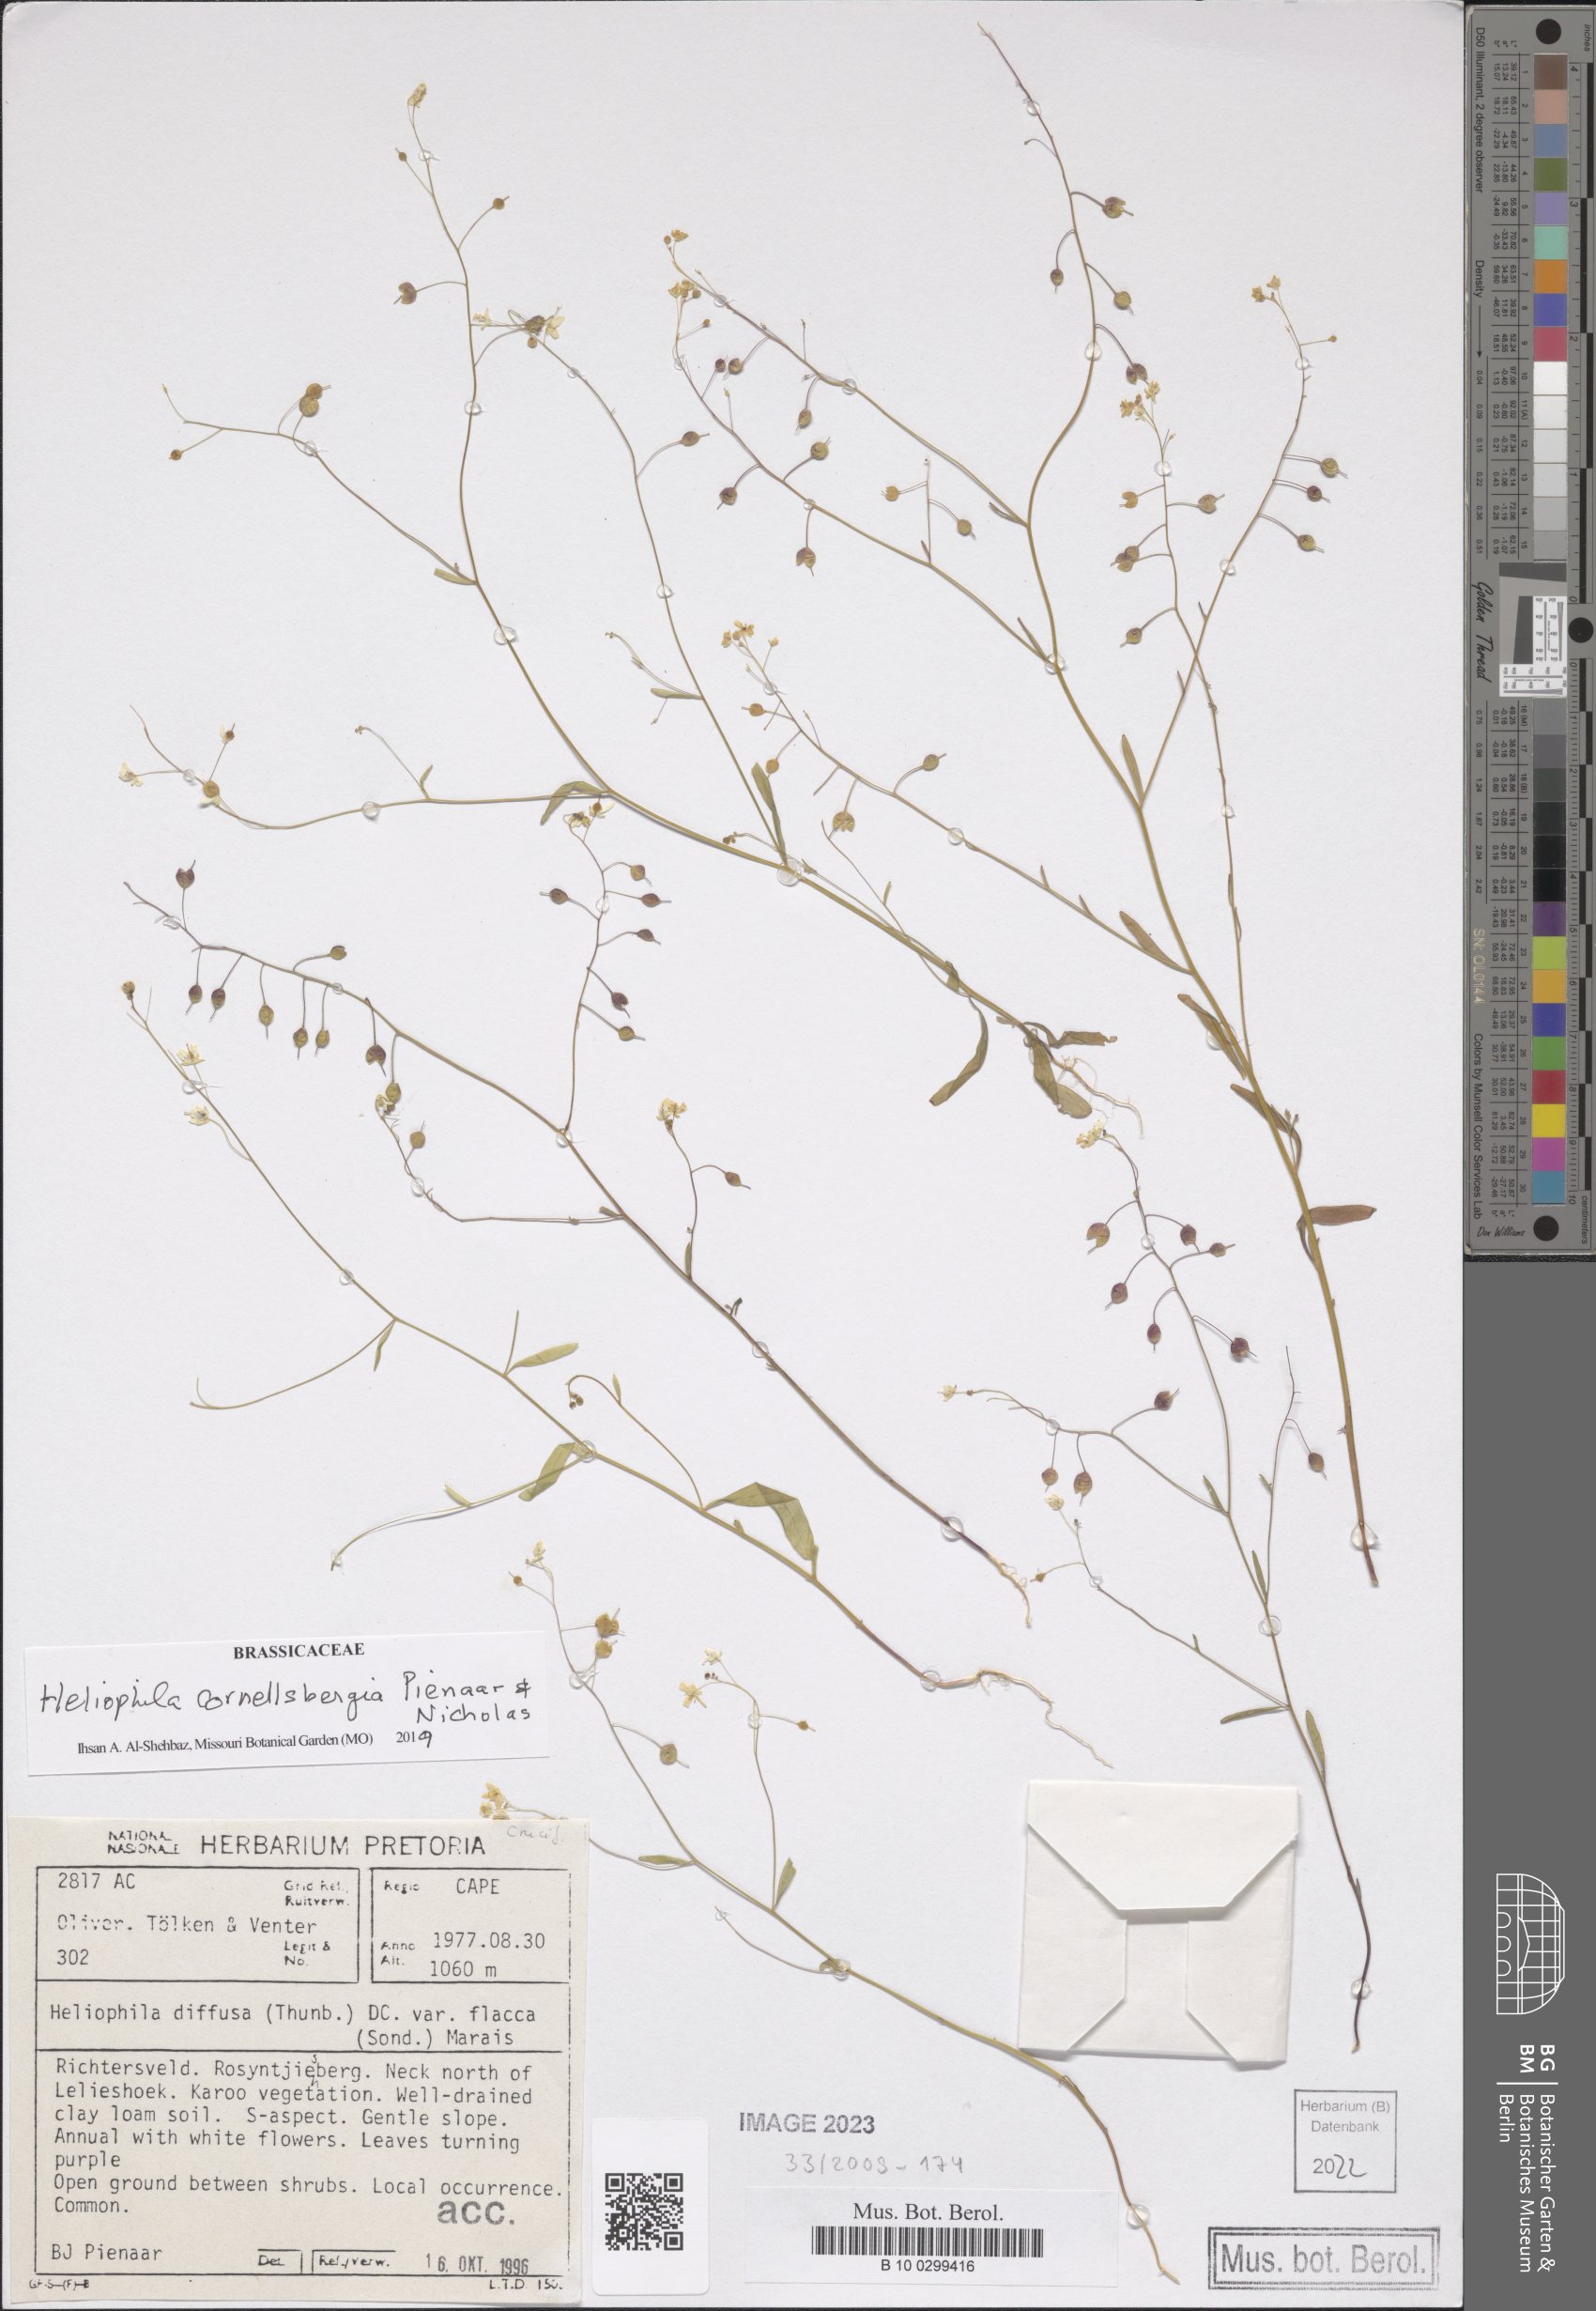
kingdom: Plantae
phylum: Tracheophyta
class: Magnoliopsida
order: Brassicales
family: Brassicaceae
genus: Heliophila
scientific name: Heliophila cornellsbergia
